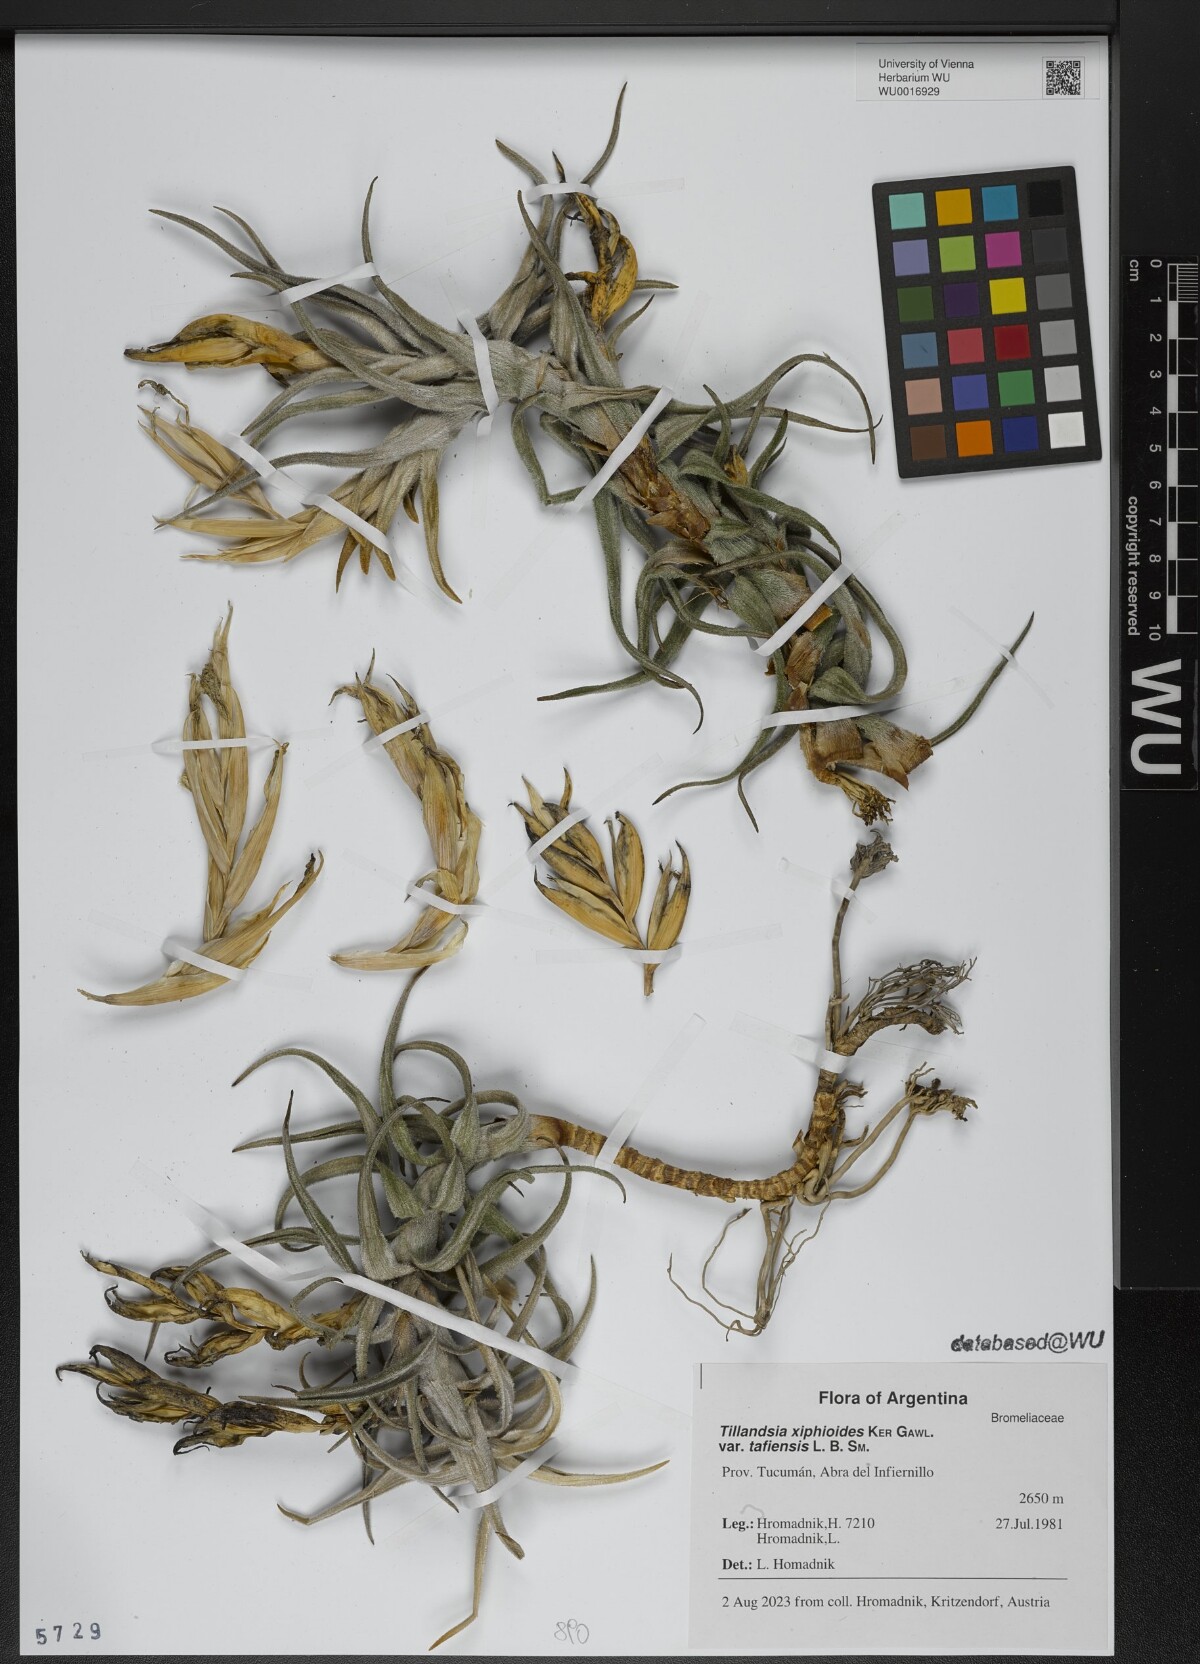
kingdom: Plantae
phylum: Tracheophyta
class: Liliopsida
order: Poales
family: Bromeliaceae
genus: Tillandsia
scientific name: Tillandsia tafiensis
